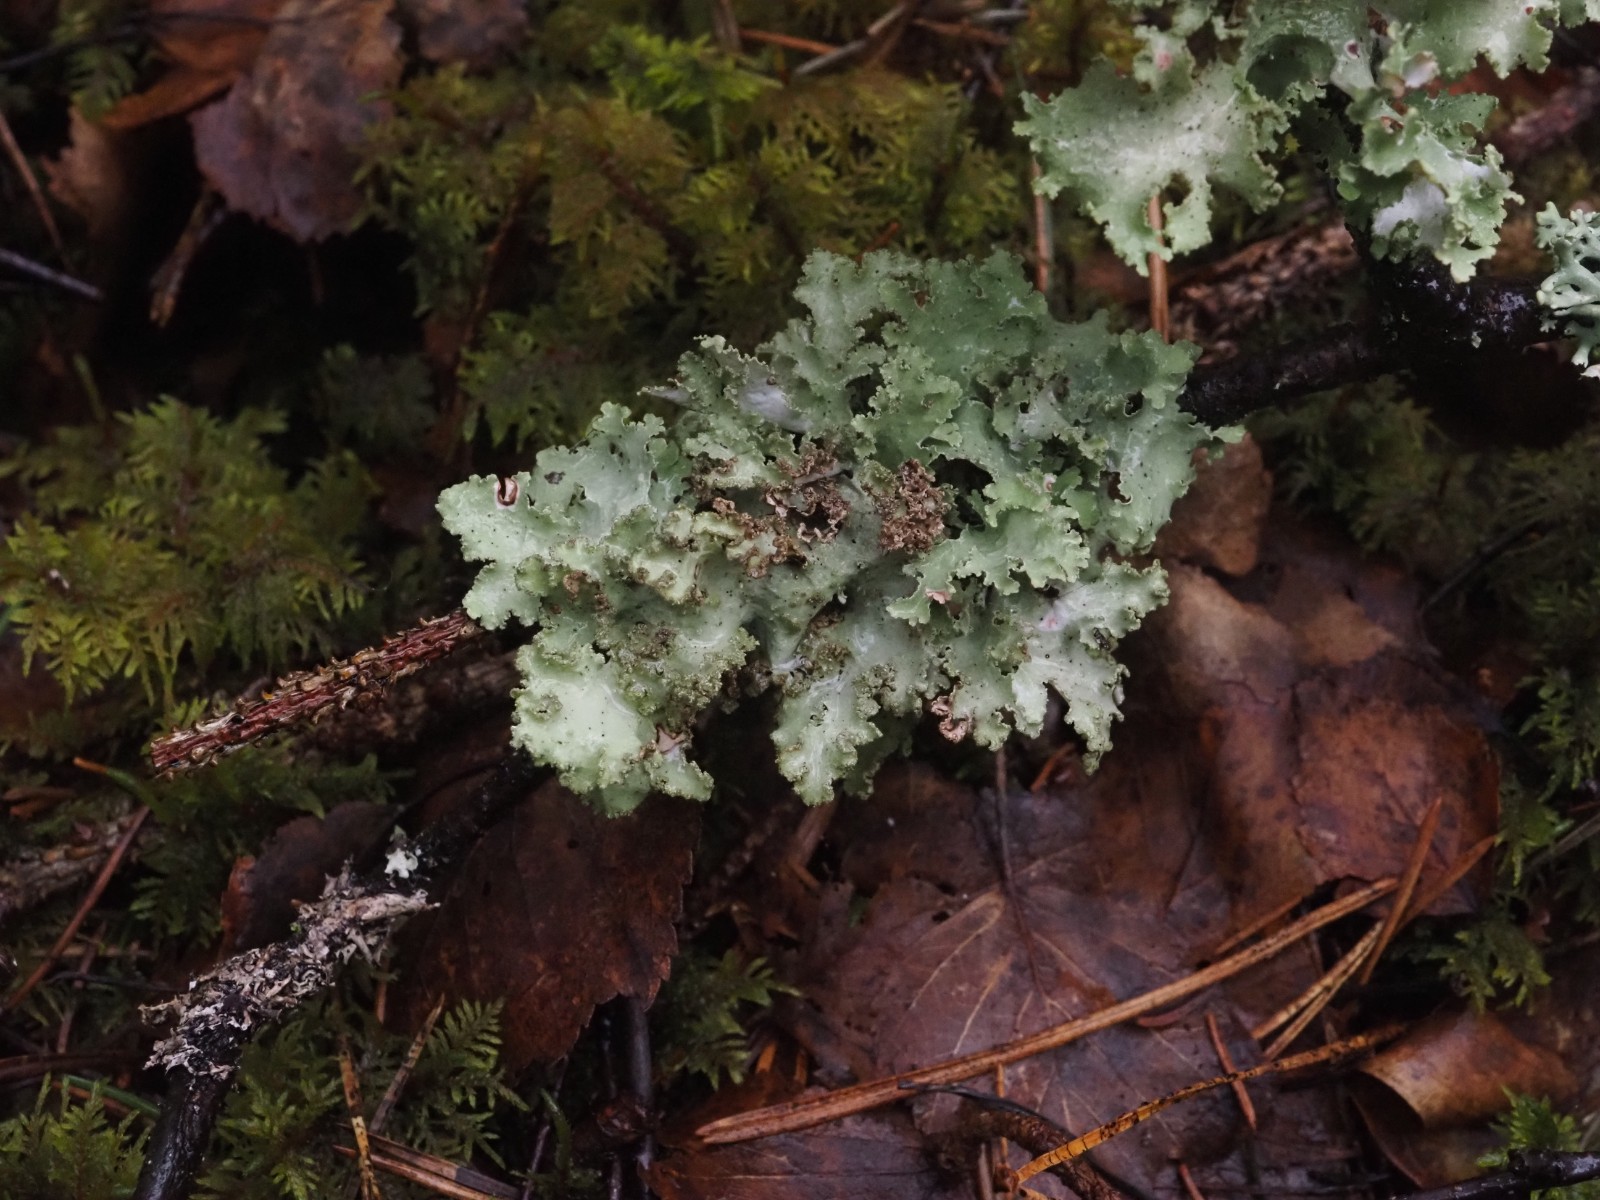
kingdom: Fungi
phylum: Ascomycota
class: Lecanoromycetes
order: Lecanorales
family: Parmeliaceae
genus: Platismatia
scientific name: Platismatia glauca
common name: blågrå papirlav
